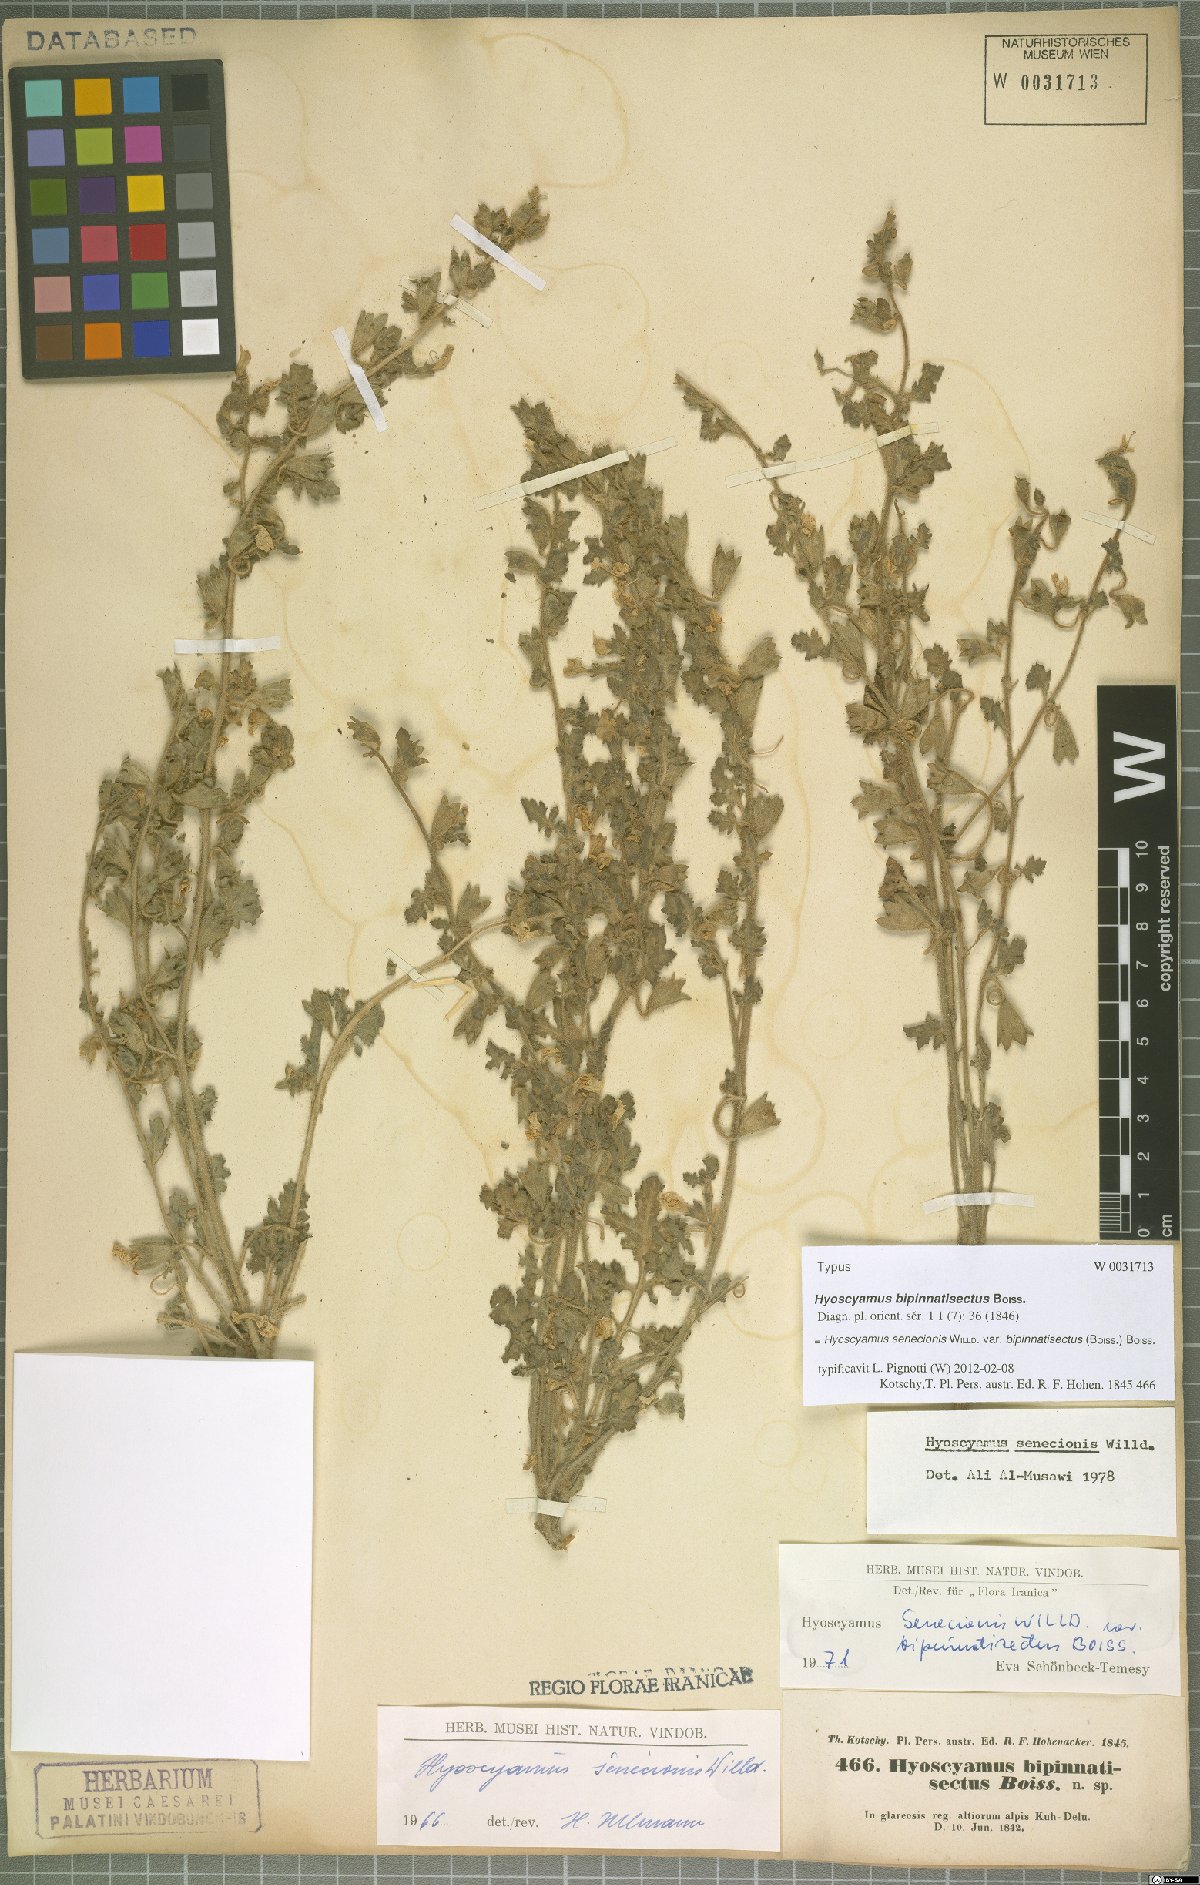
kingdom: Plantae
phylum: Tracheophyta
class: Magnoliopsida
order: Solanales
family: Solanaceae
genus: Hyoscyamus
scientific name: Hyoscyamus senecionis
